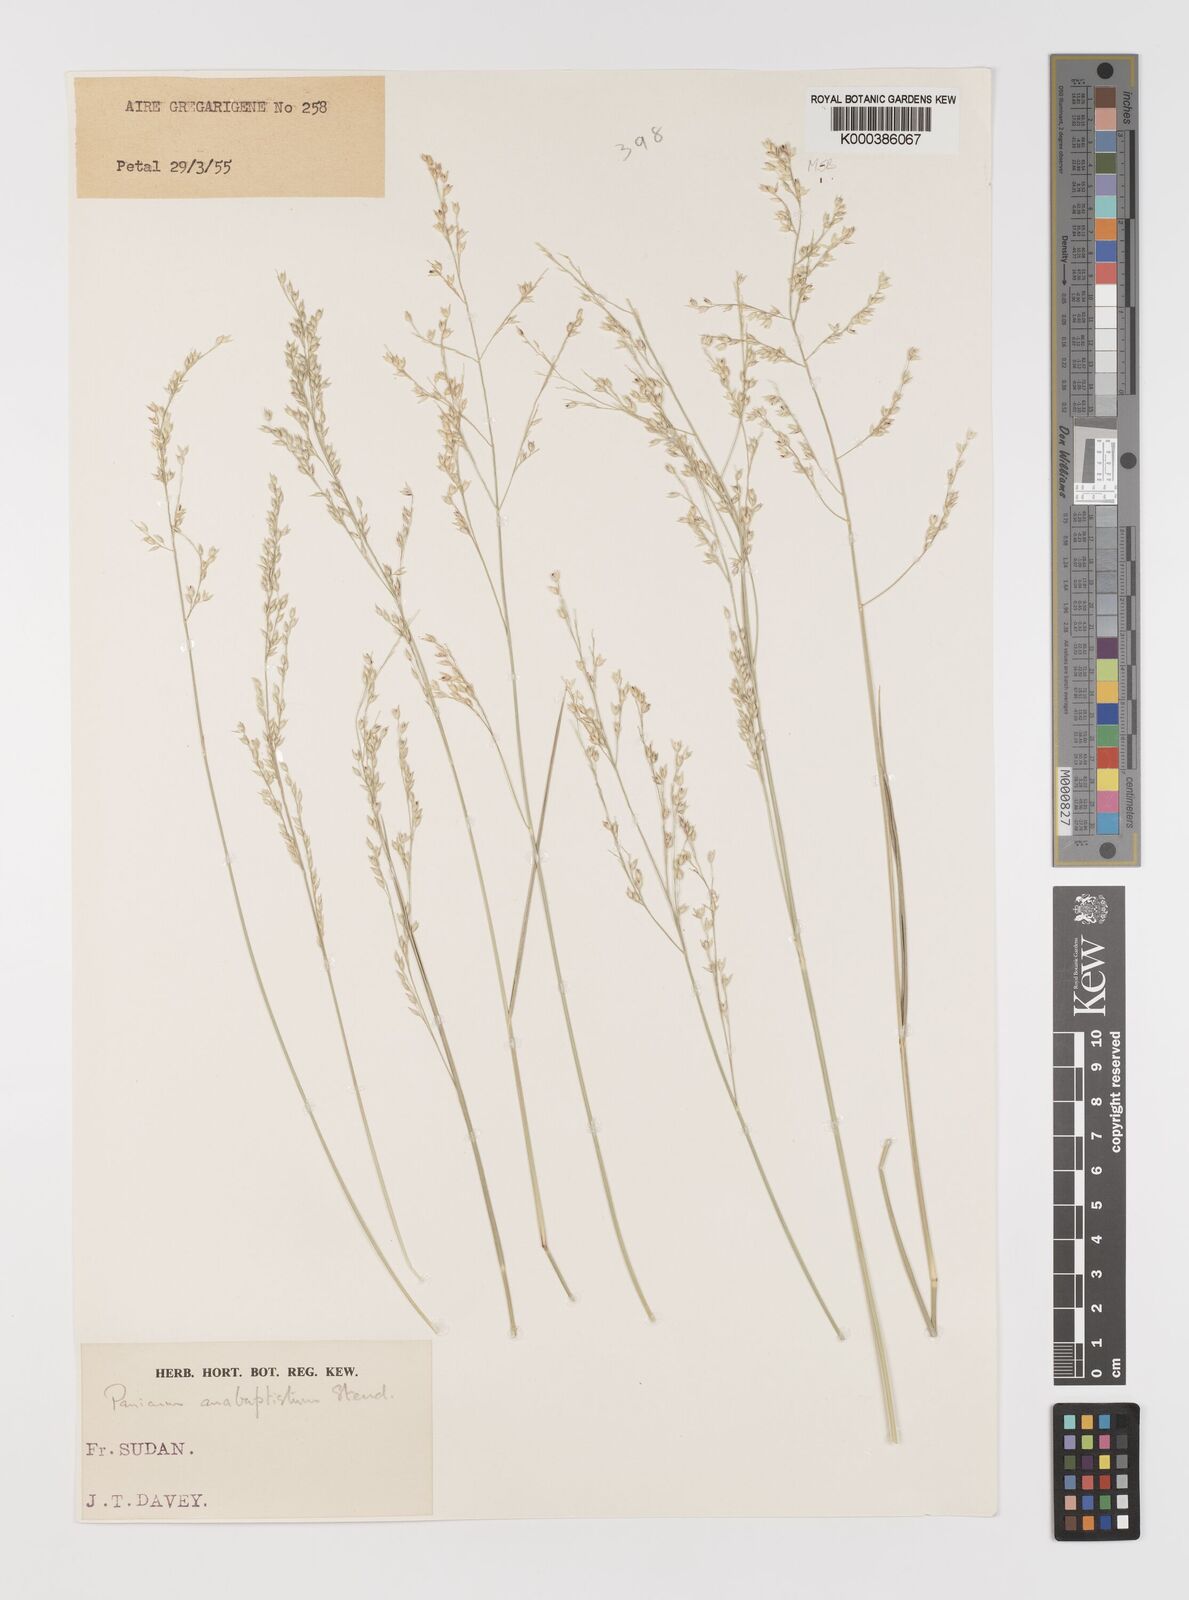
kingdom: Plantae
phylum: Tracheophyta
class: Liliopsida
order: Poales
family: Poaceae
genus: Panicum
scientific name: Panicum anabaptistum
